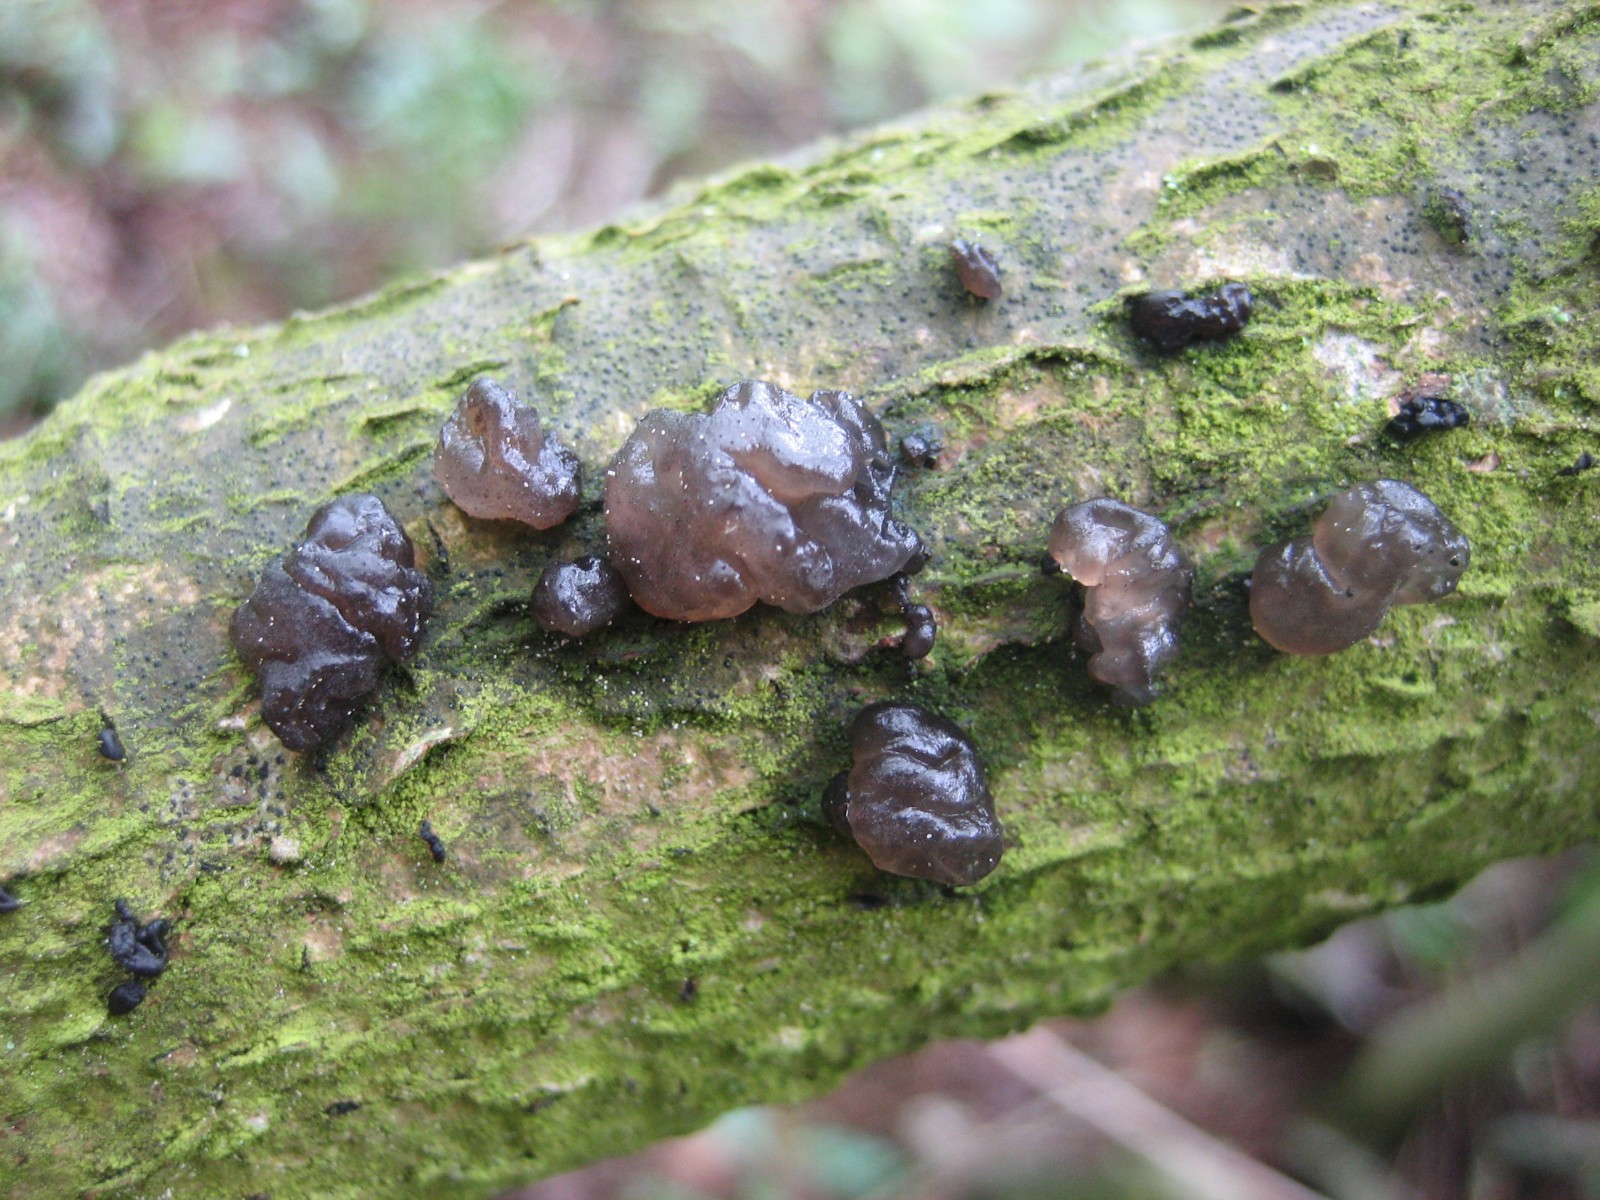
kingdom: Fungi
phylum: Basidiomycota
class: Agaricomycetes
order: Auriculariales
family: Auriculariaceae
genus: Exidia
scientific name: Exidia nigricans
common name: almindelig bævretop
